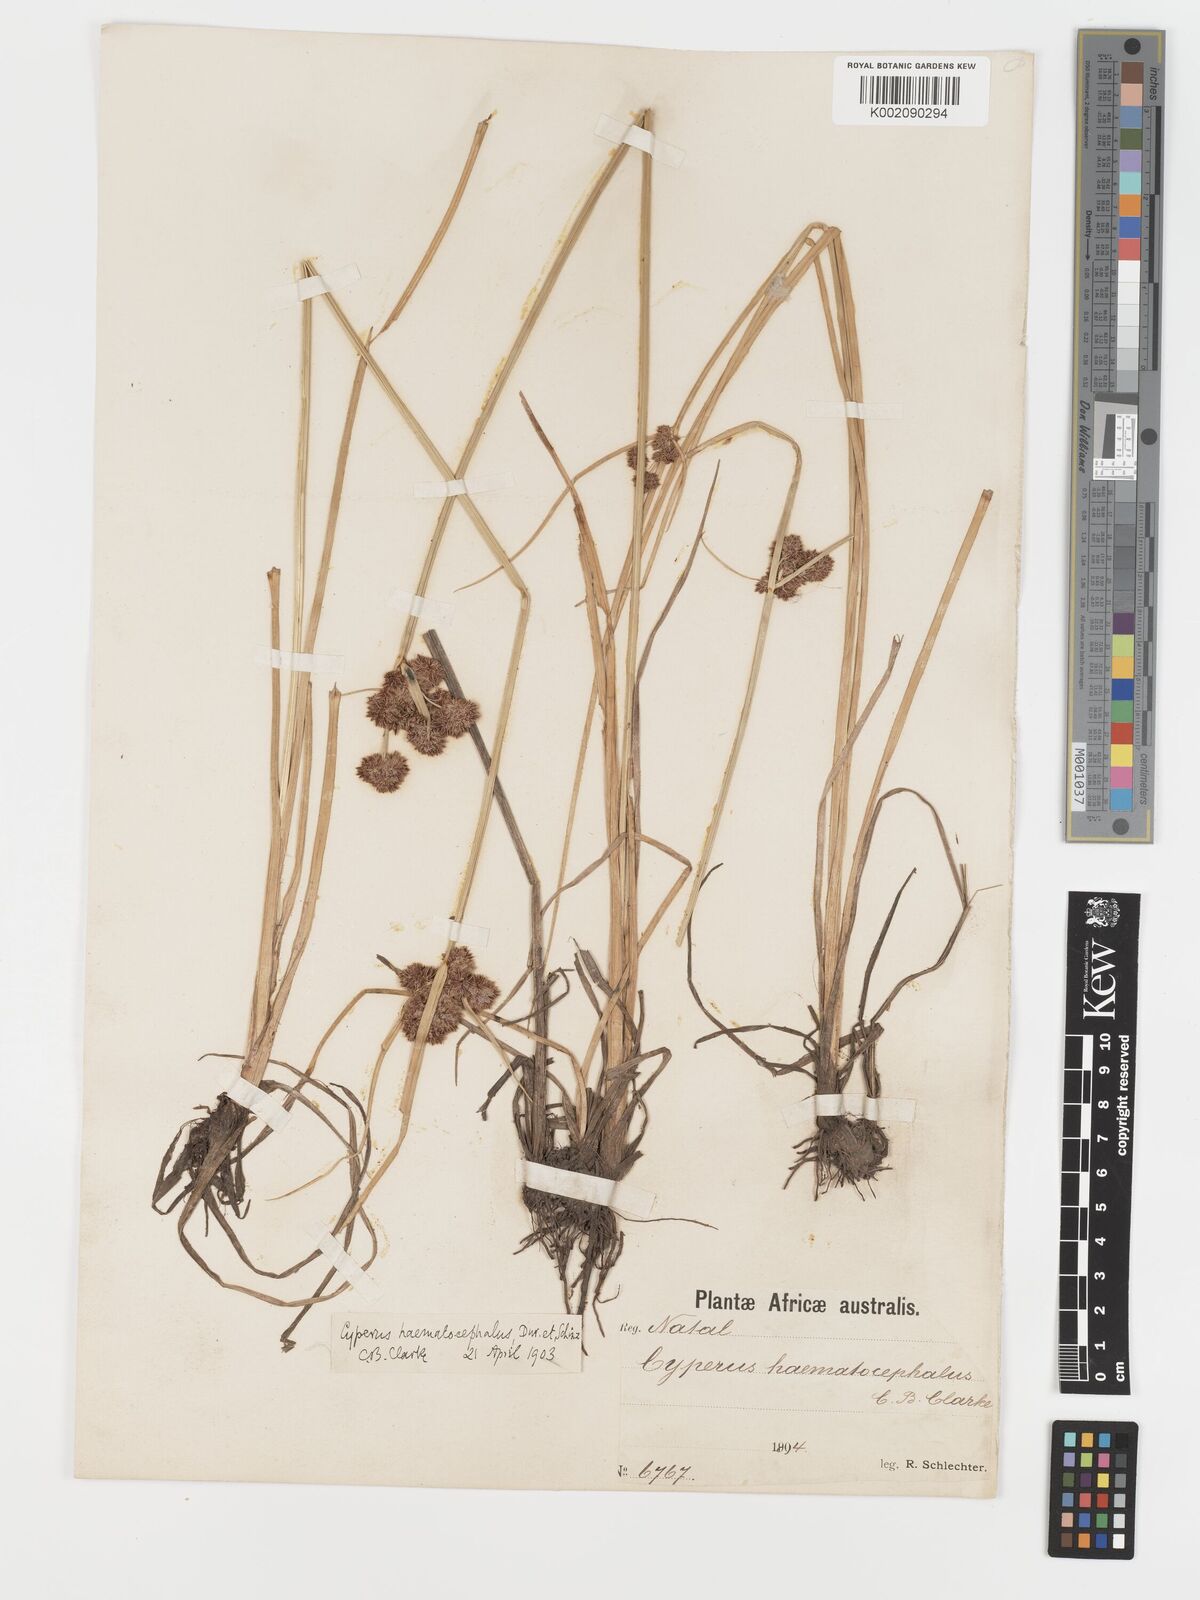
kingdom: Plantae
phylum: Tracheophyta
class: Liliopsida
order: Poales
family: Cyperaceae
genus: Cyperus
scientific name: Cyperus haematocephalus
